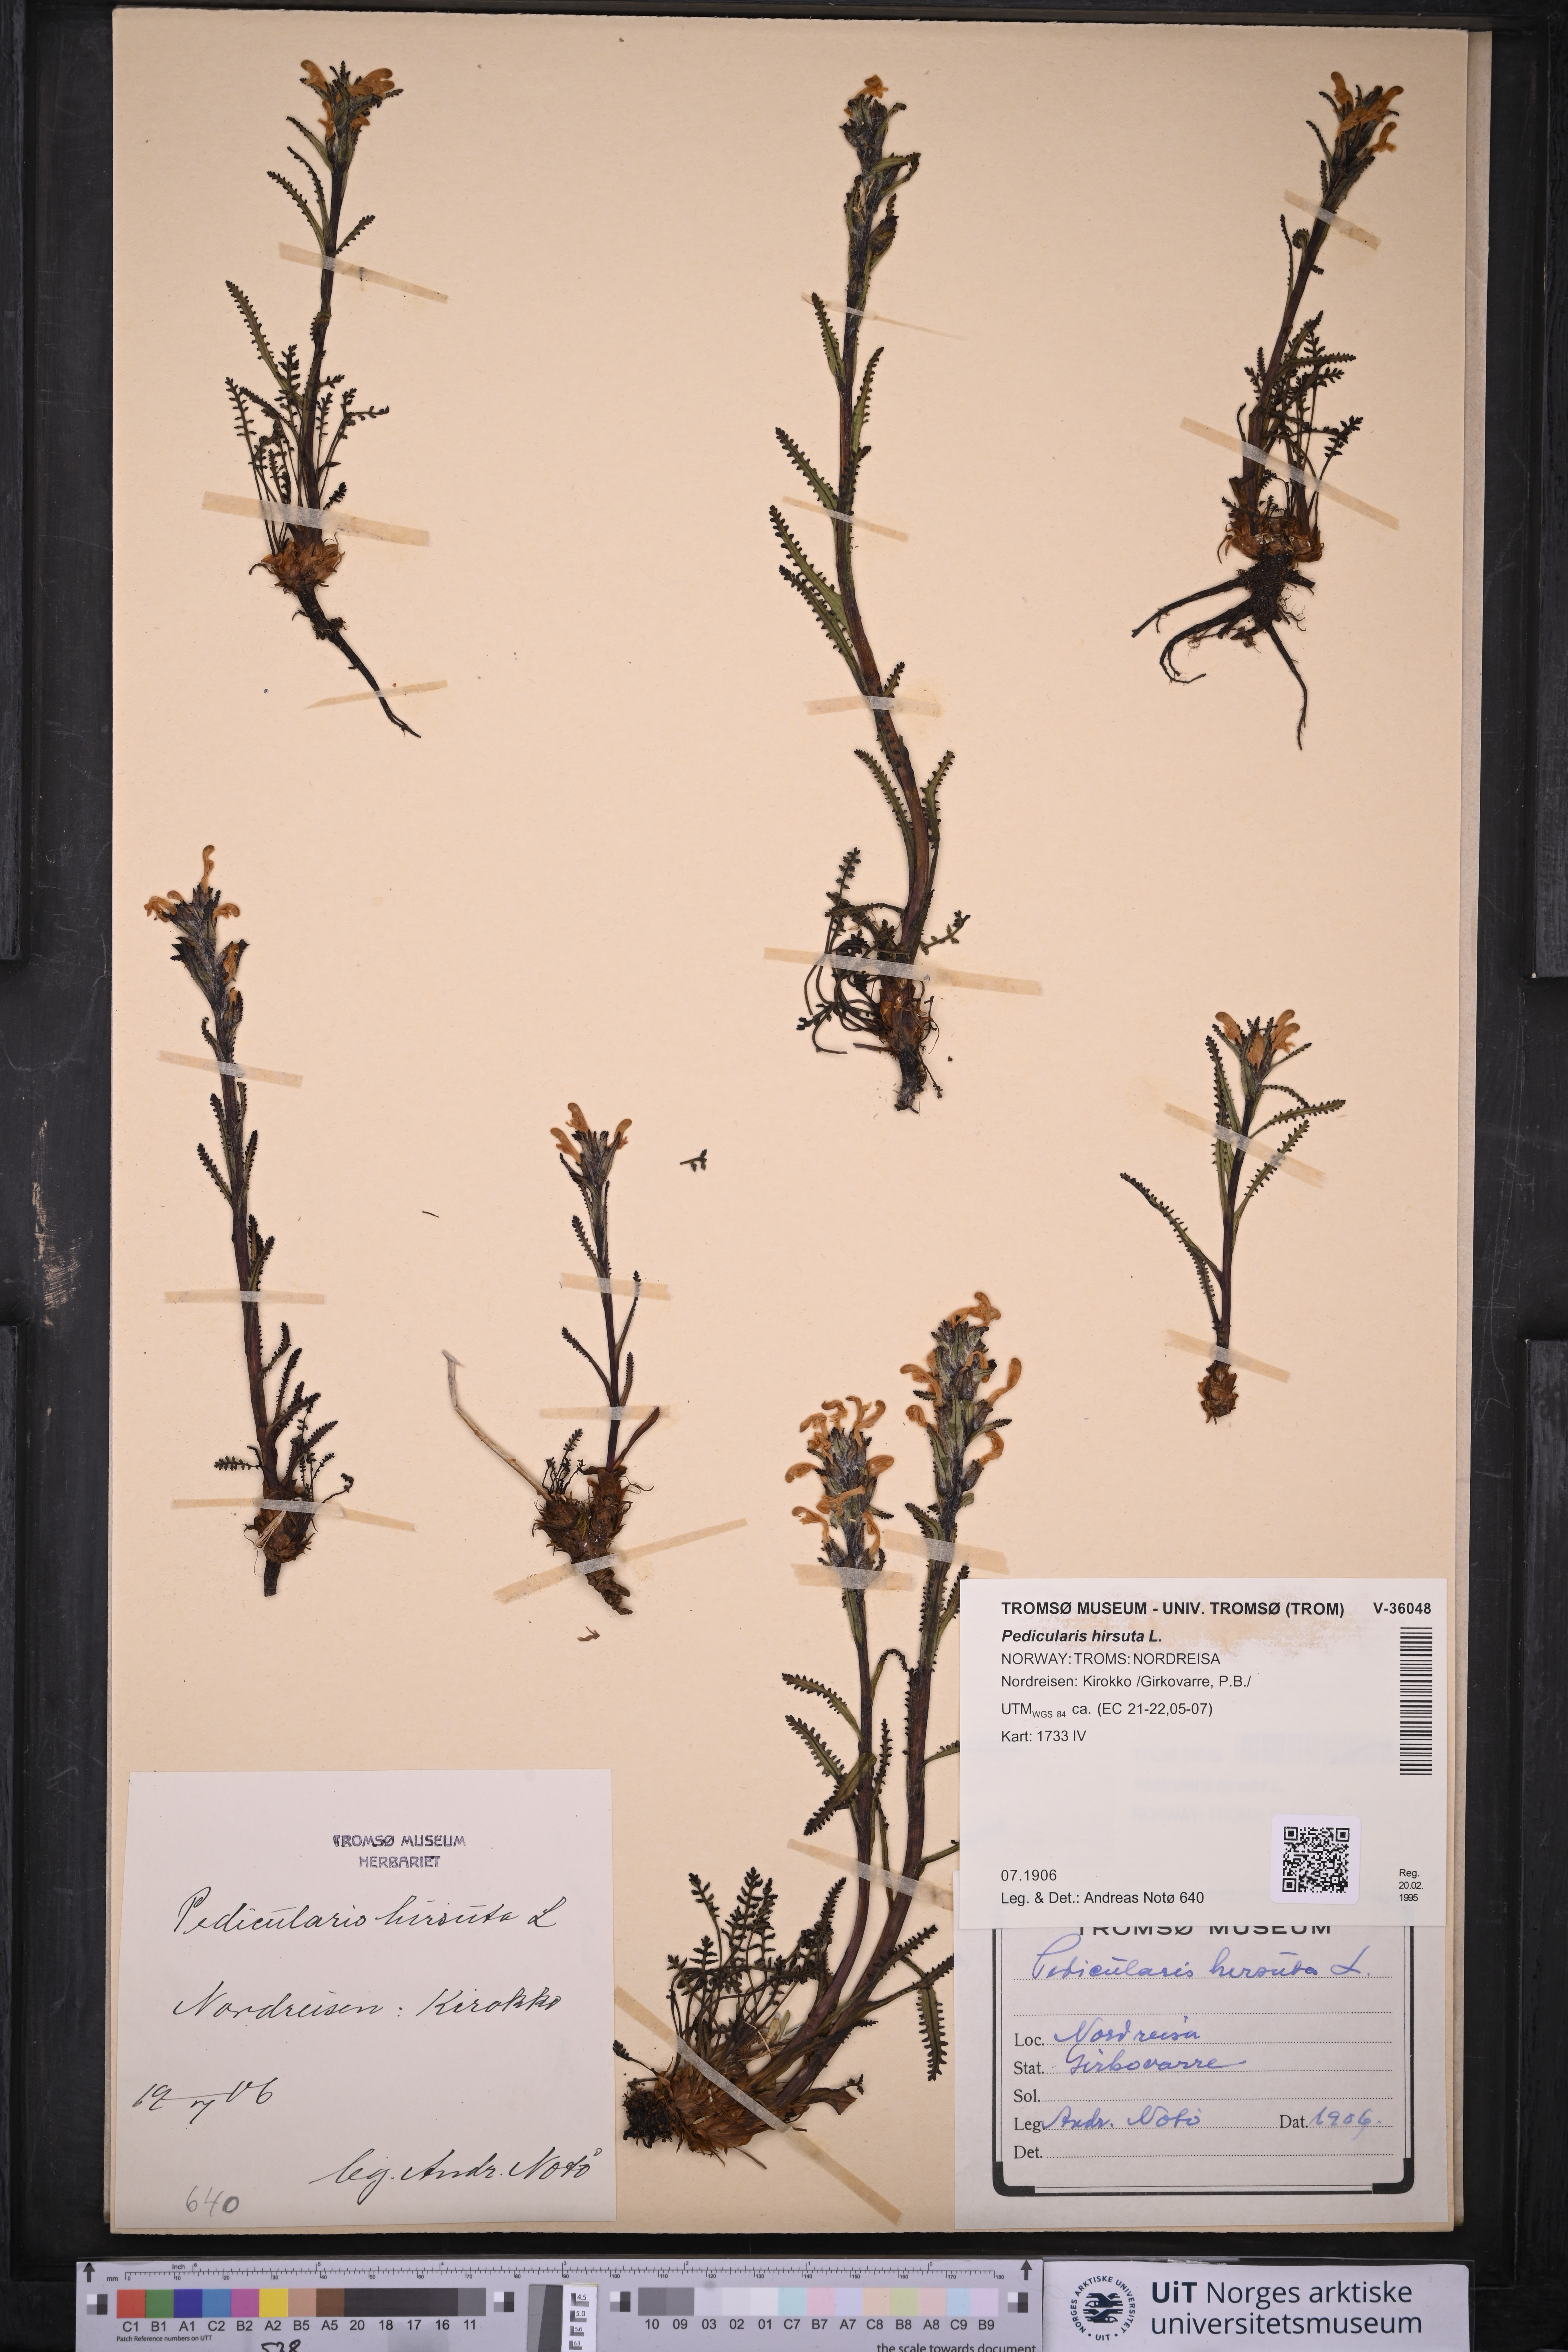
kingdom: Plantae
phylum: Tracheophyta
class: Magnoliopsida
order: Lamiales
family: Orobanchaceae
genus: Pedicularis
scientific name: Pedicularis hirsuta
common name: Hairy lousewort
